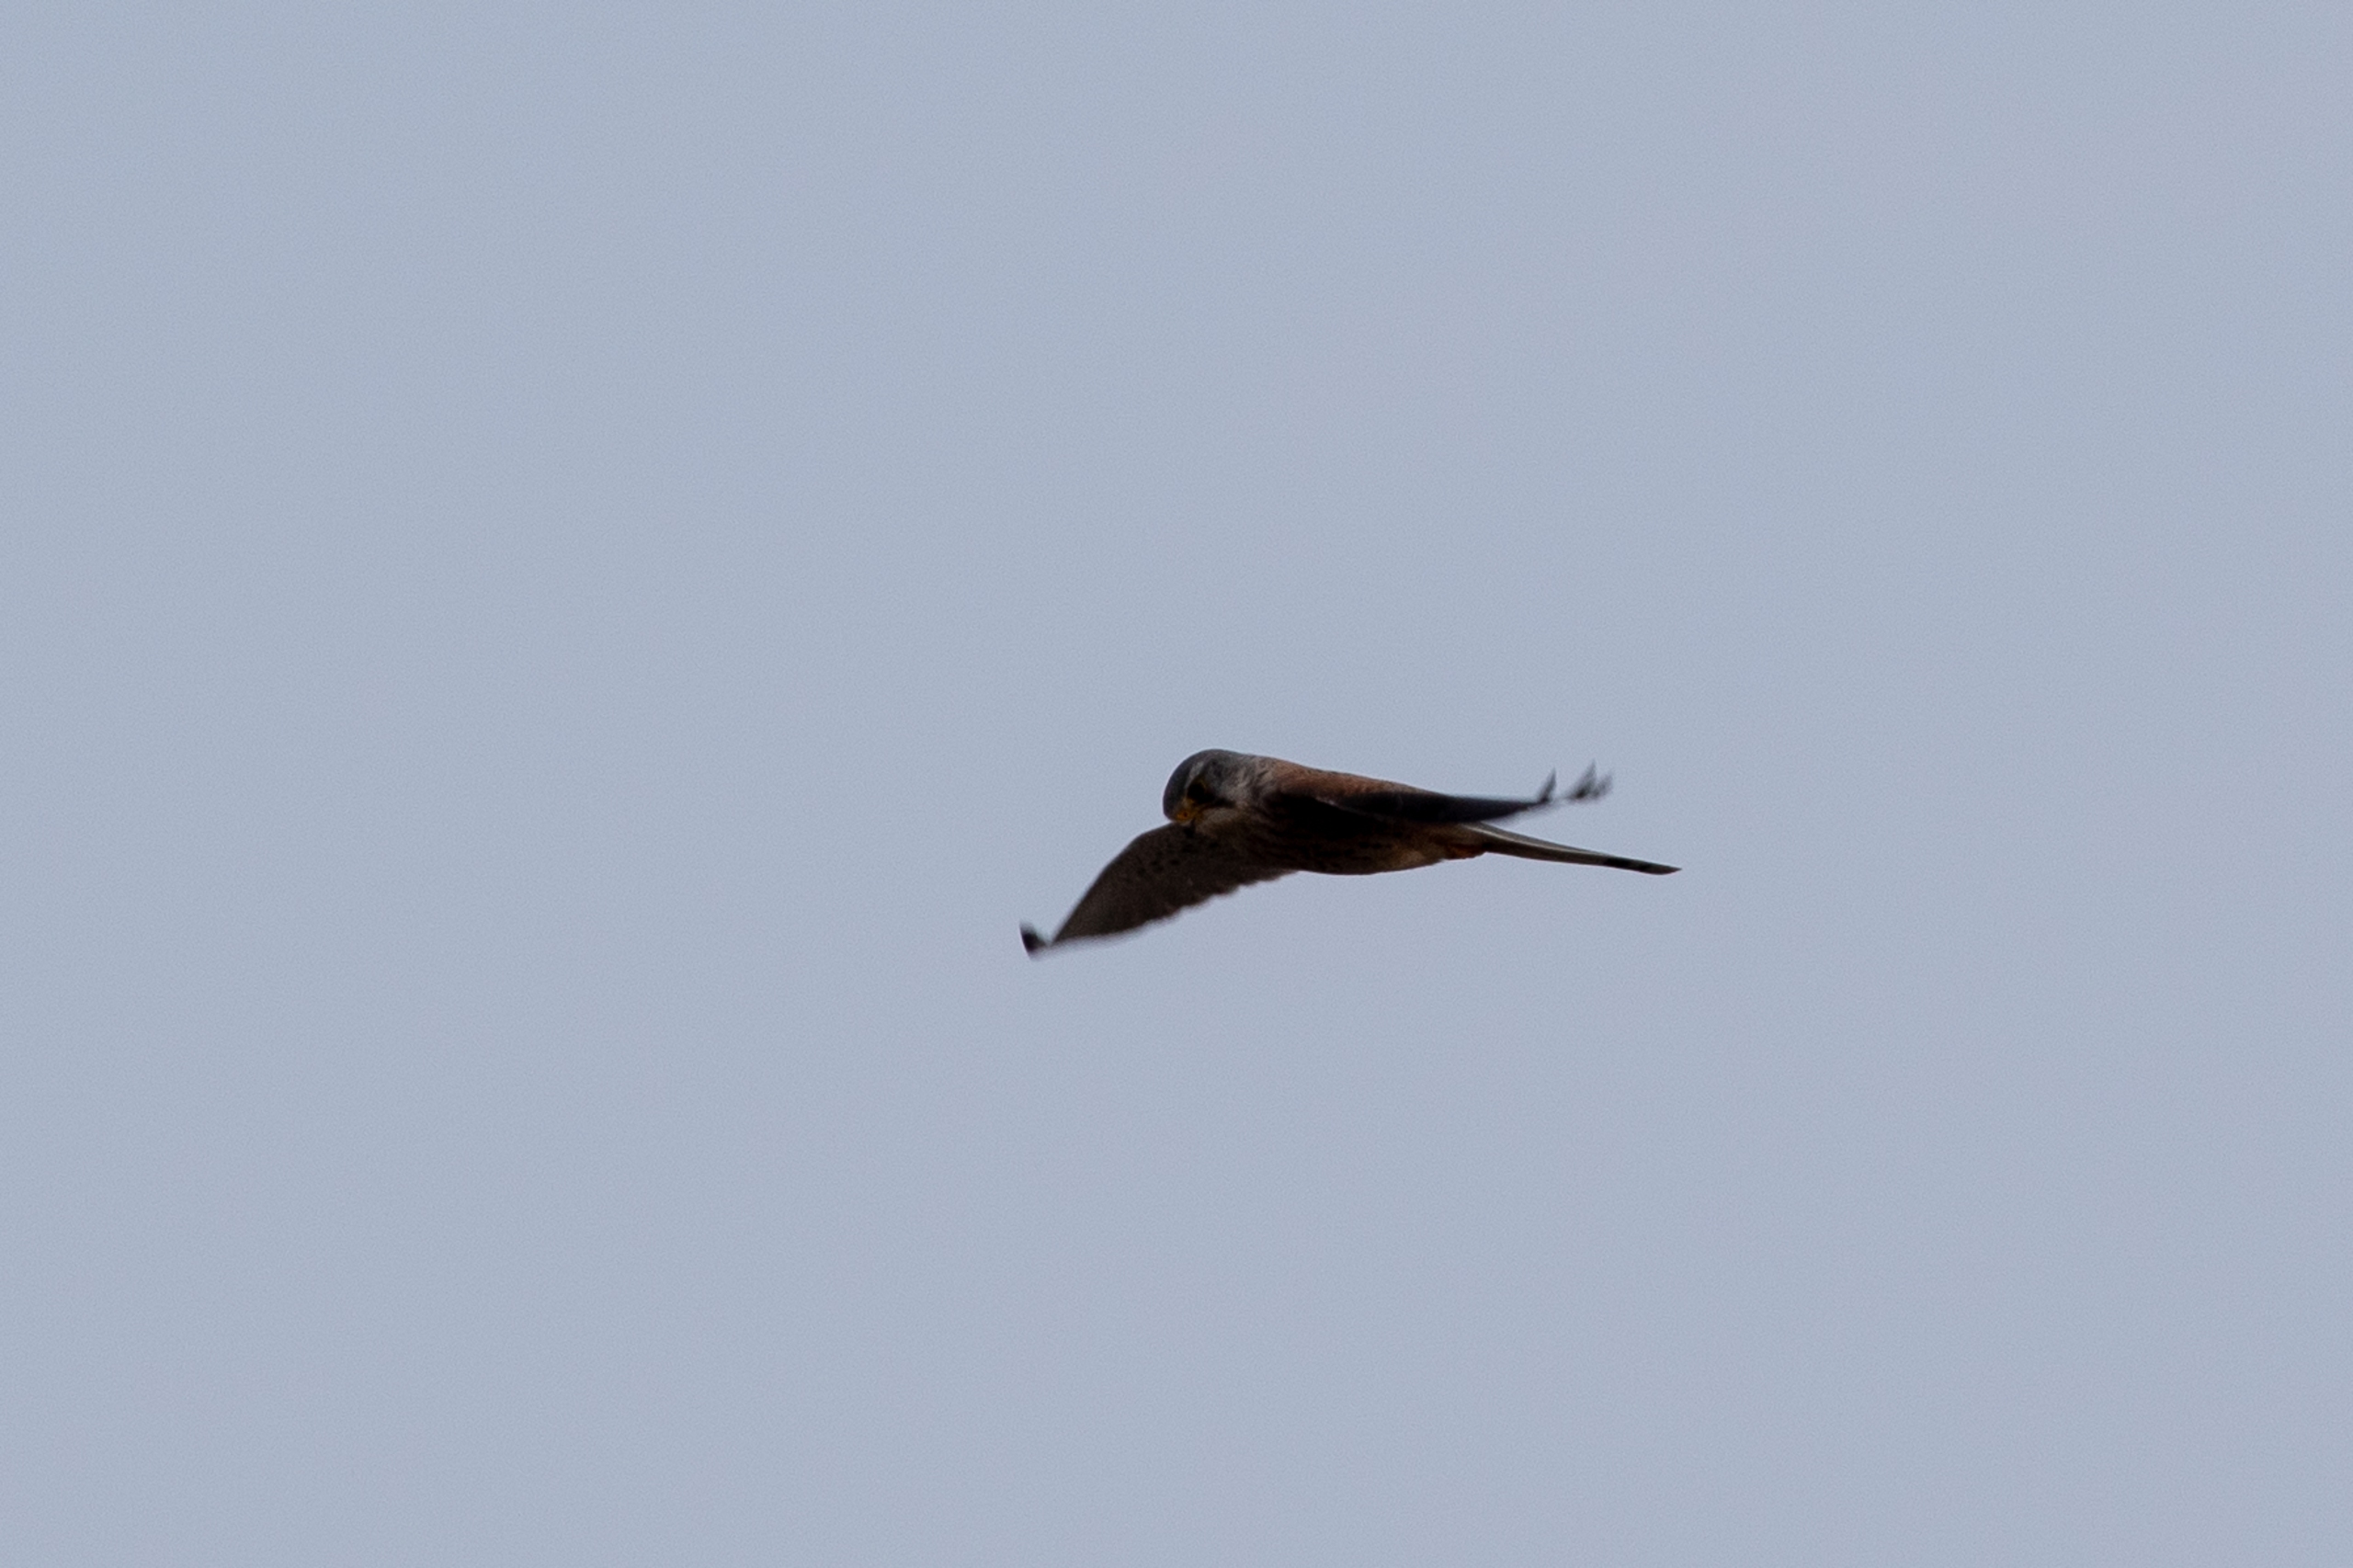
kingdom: Animalia
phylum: Chordata
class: Aves
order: Falconiformes
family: Falconidae
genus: Falco
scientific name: Falco tinnunculus
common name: Tårnfalk
